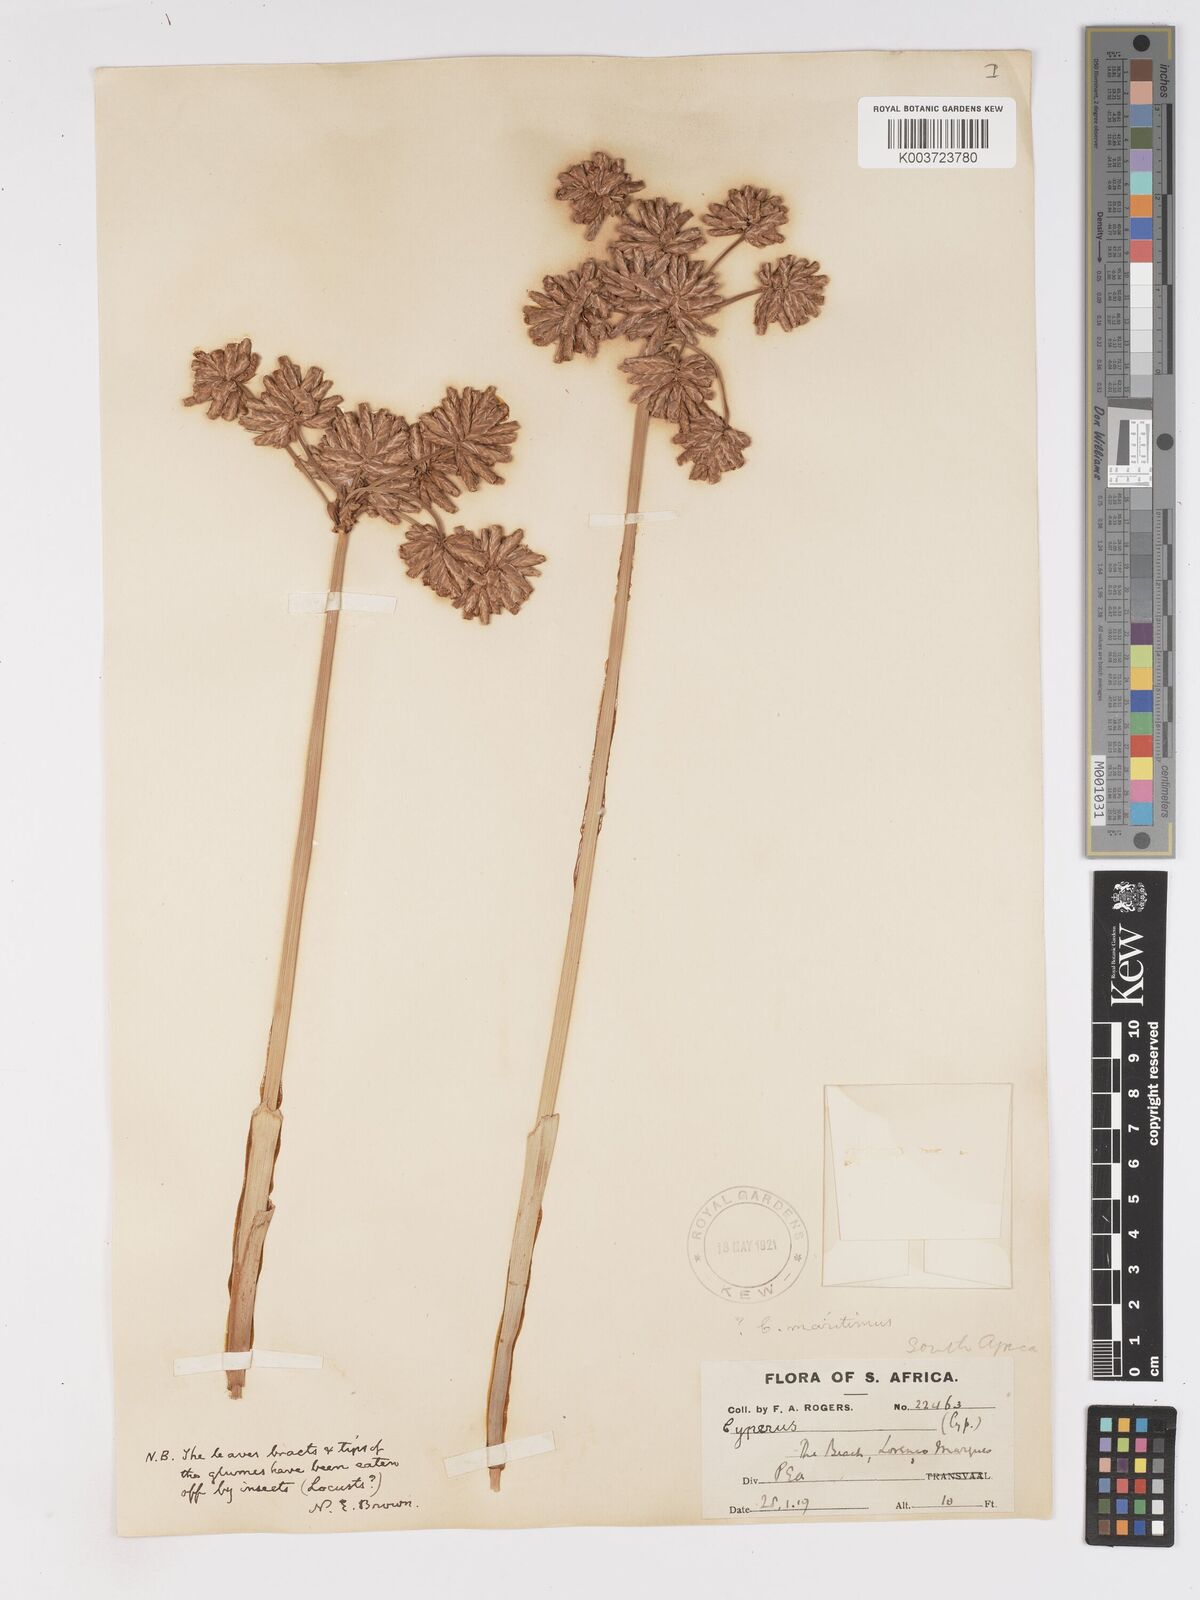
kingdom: Plantae
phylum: Tracheophyta
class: Liliopsida
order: Poales
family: Cyperaceae
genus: Cyperus
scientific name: Cyperus crassipes
